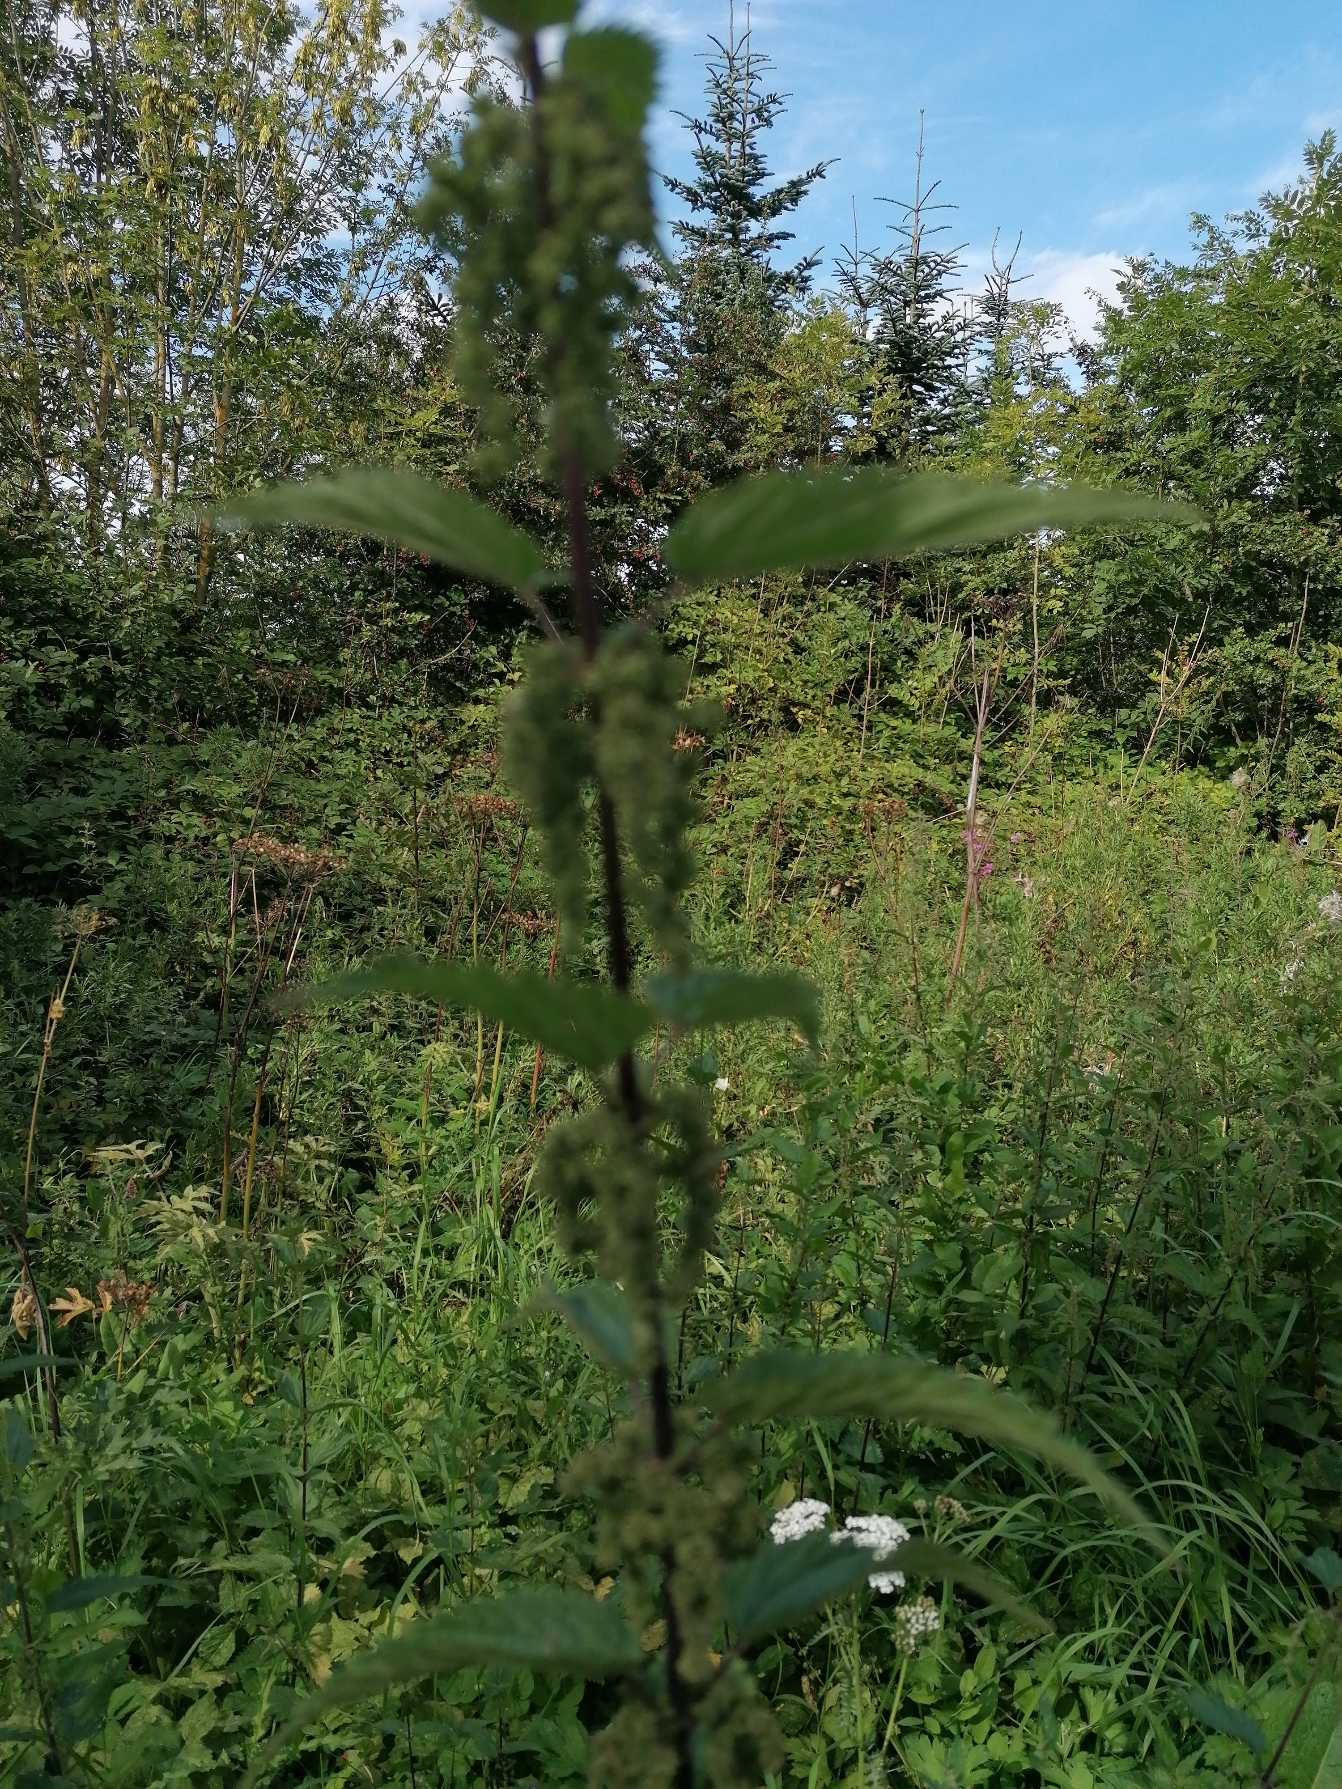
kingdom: Plantae
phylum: Tracheophyta
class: Magnoliopsida
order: Rosales
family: Urticaceae
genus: Urtica
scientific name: Urtica dioica
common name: Stor nælde
